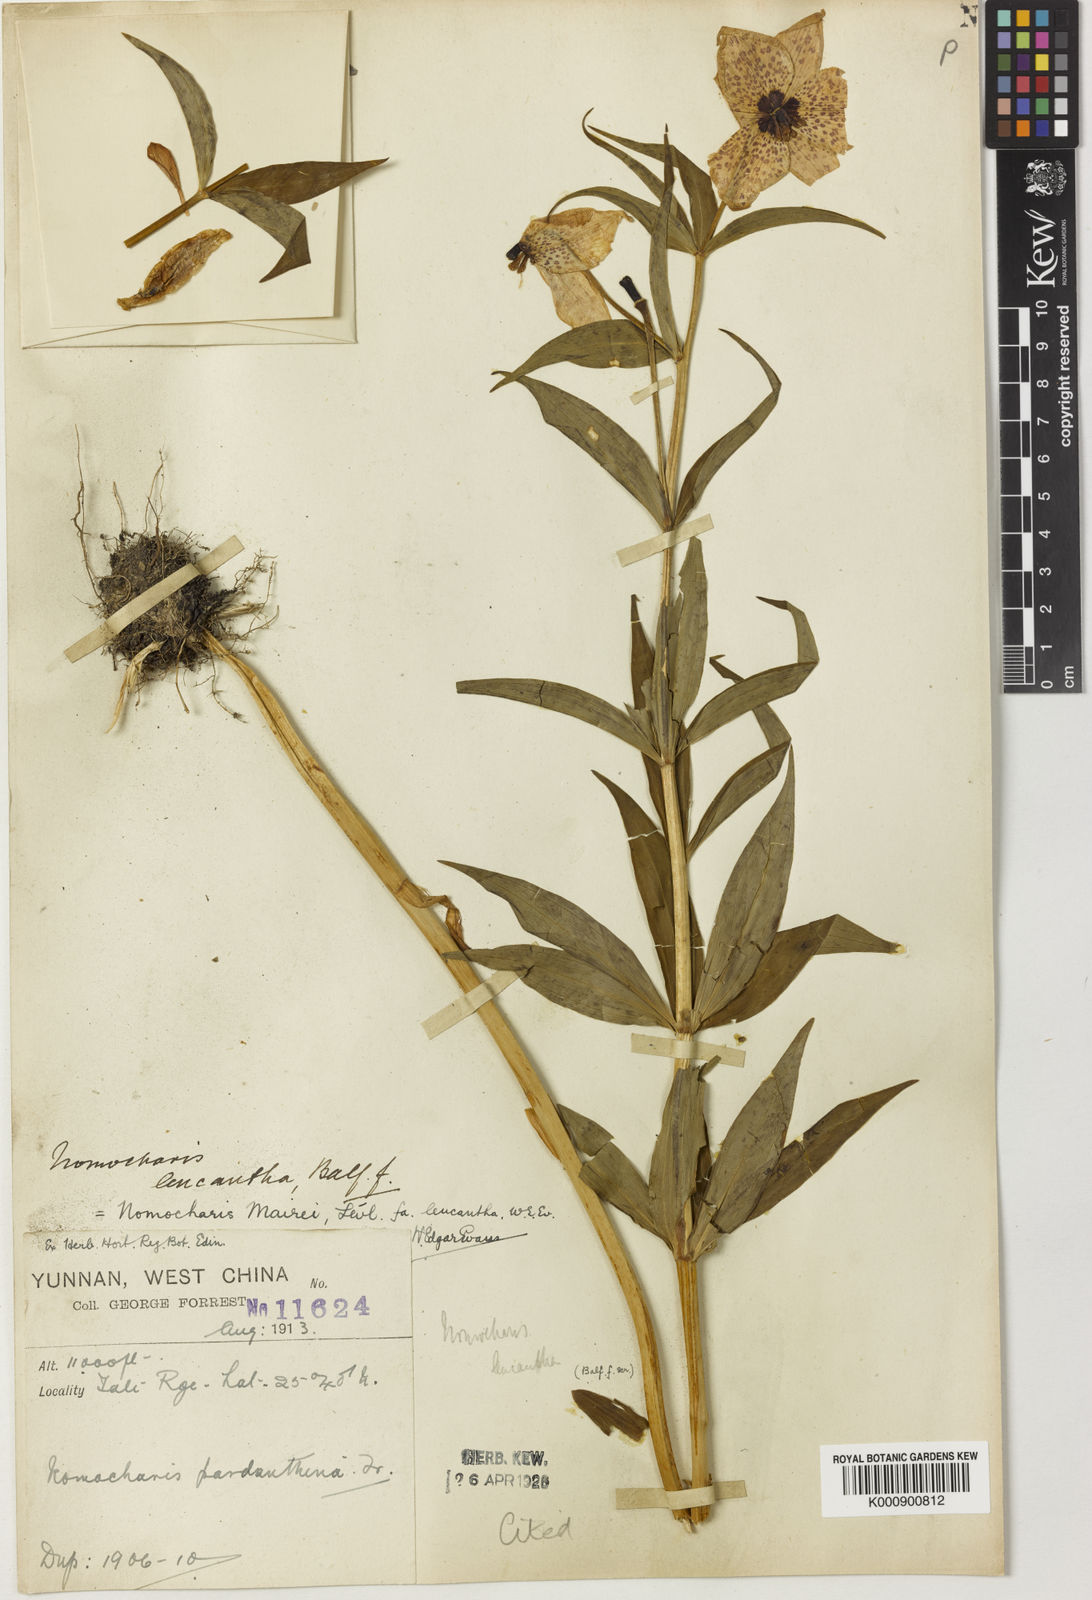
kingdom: Plantae
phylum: Tracheophyta
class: Liliopsida
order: Liliales
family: Liliaceae
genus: Lilium
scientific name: Lilium pardanthinum
